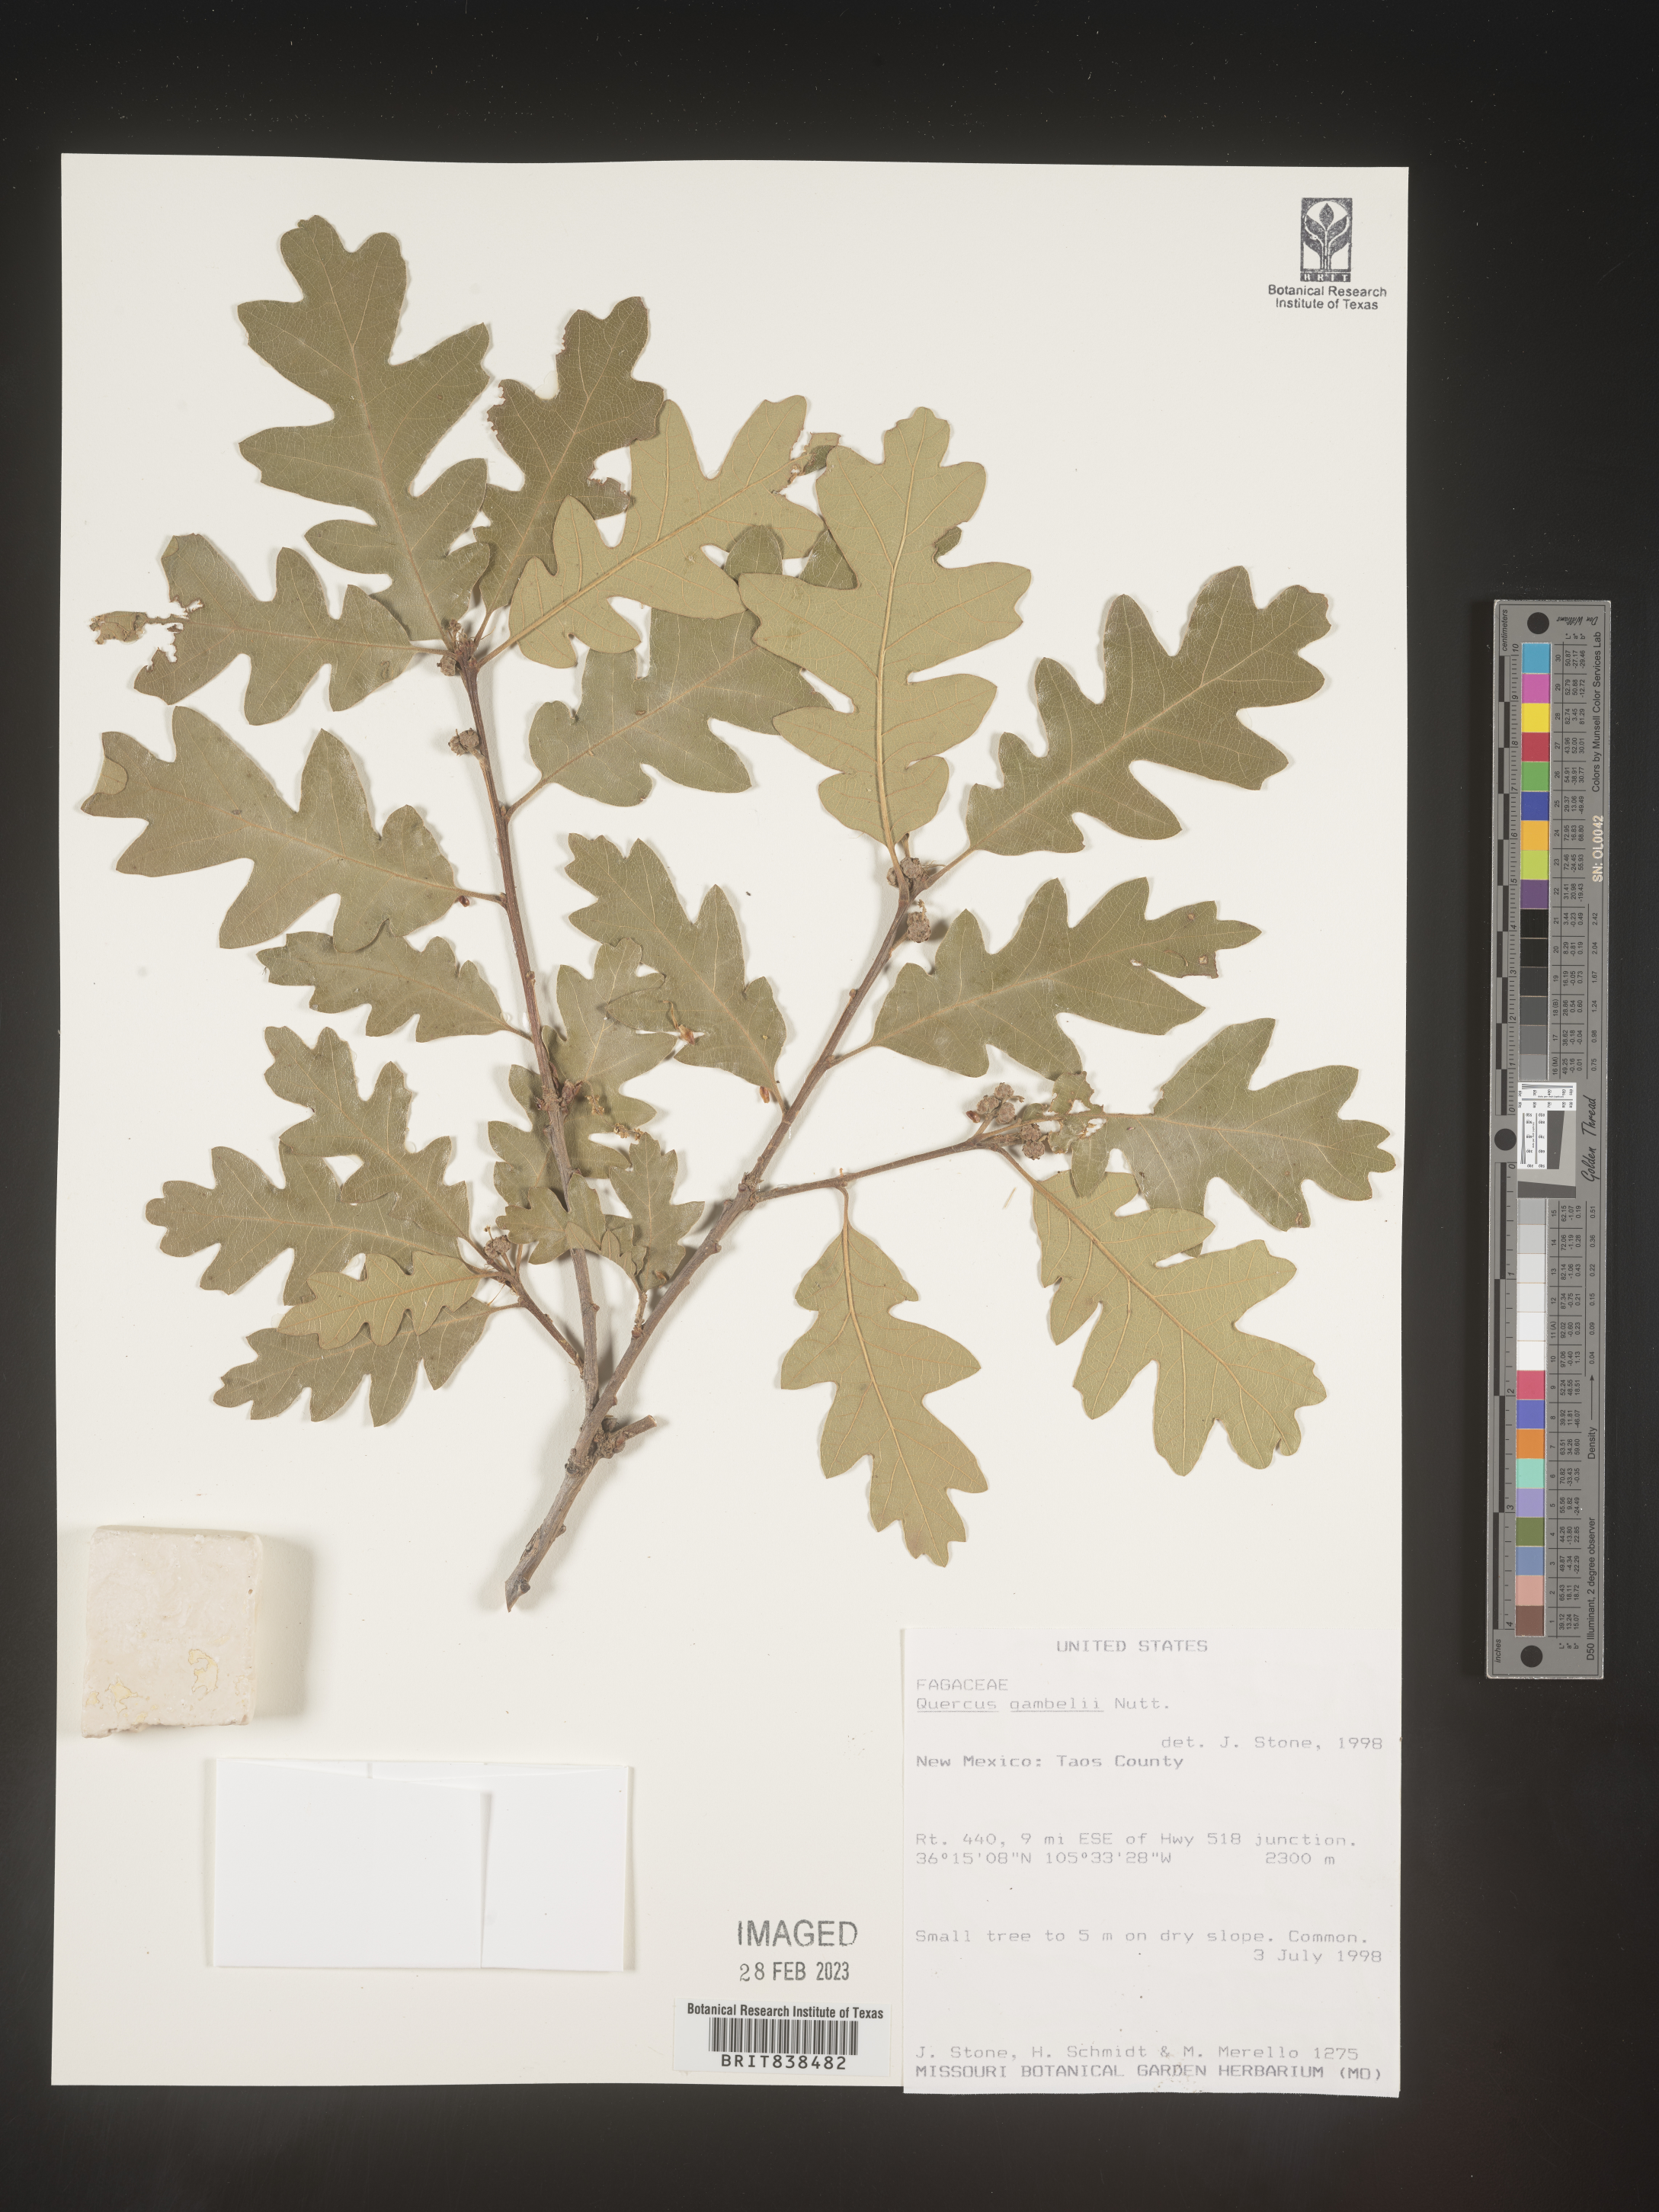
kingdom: Plantae
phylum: Tracheophyta
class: Magnoliopsida
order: Fagales
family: Fagaceae
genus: Quercus
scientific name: Quercus gambelii
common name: Gambel oak
